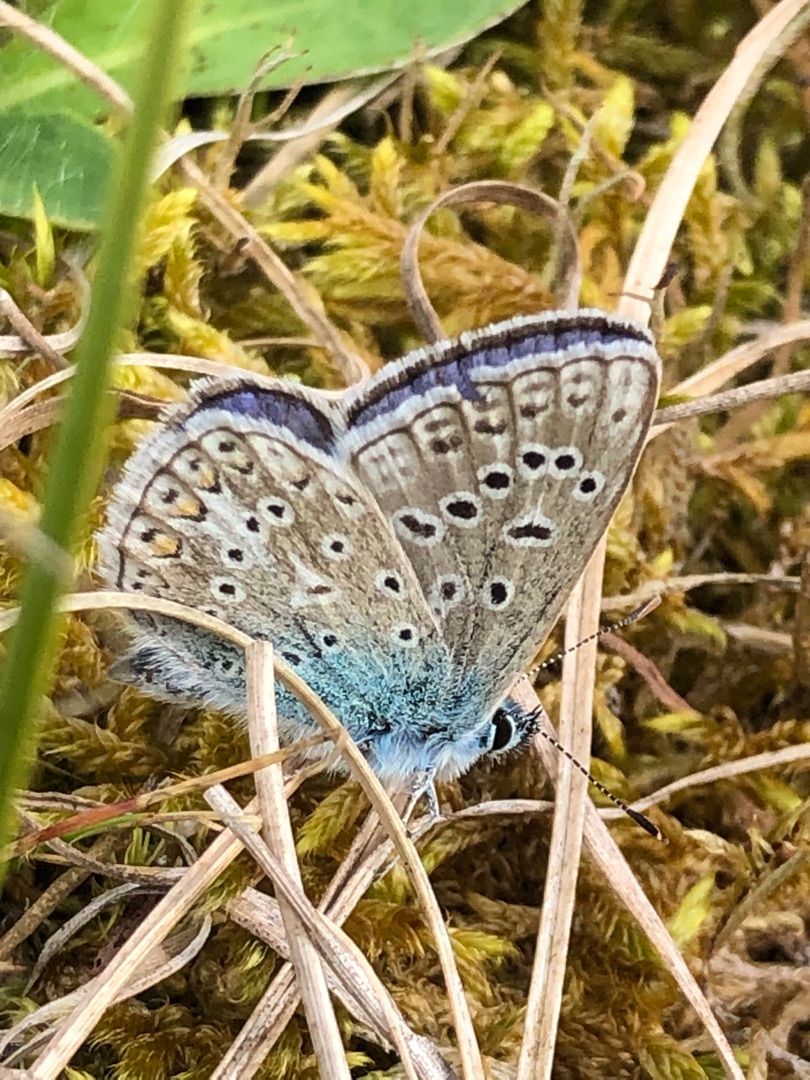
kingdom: Animalia
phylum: Arthropoda
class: Insecta
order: Lepidoptera
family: Lycaenidae
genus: Polyommatus
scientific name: Polyommatus icarus
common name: Almindelig blåfugl
